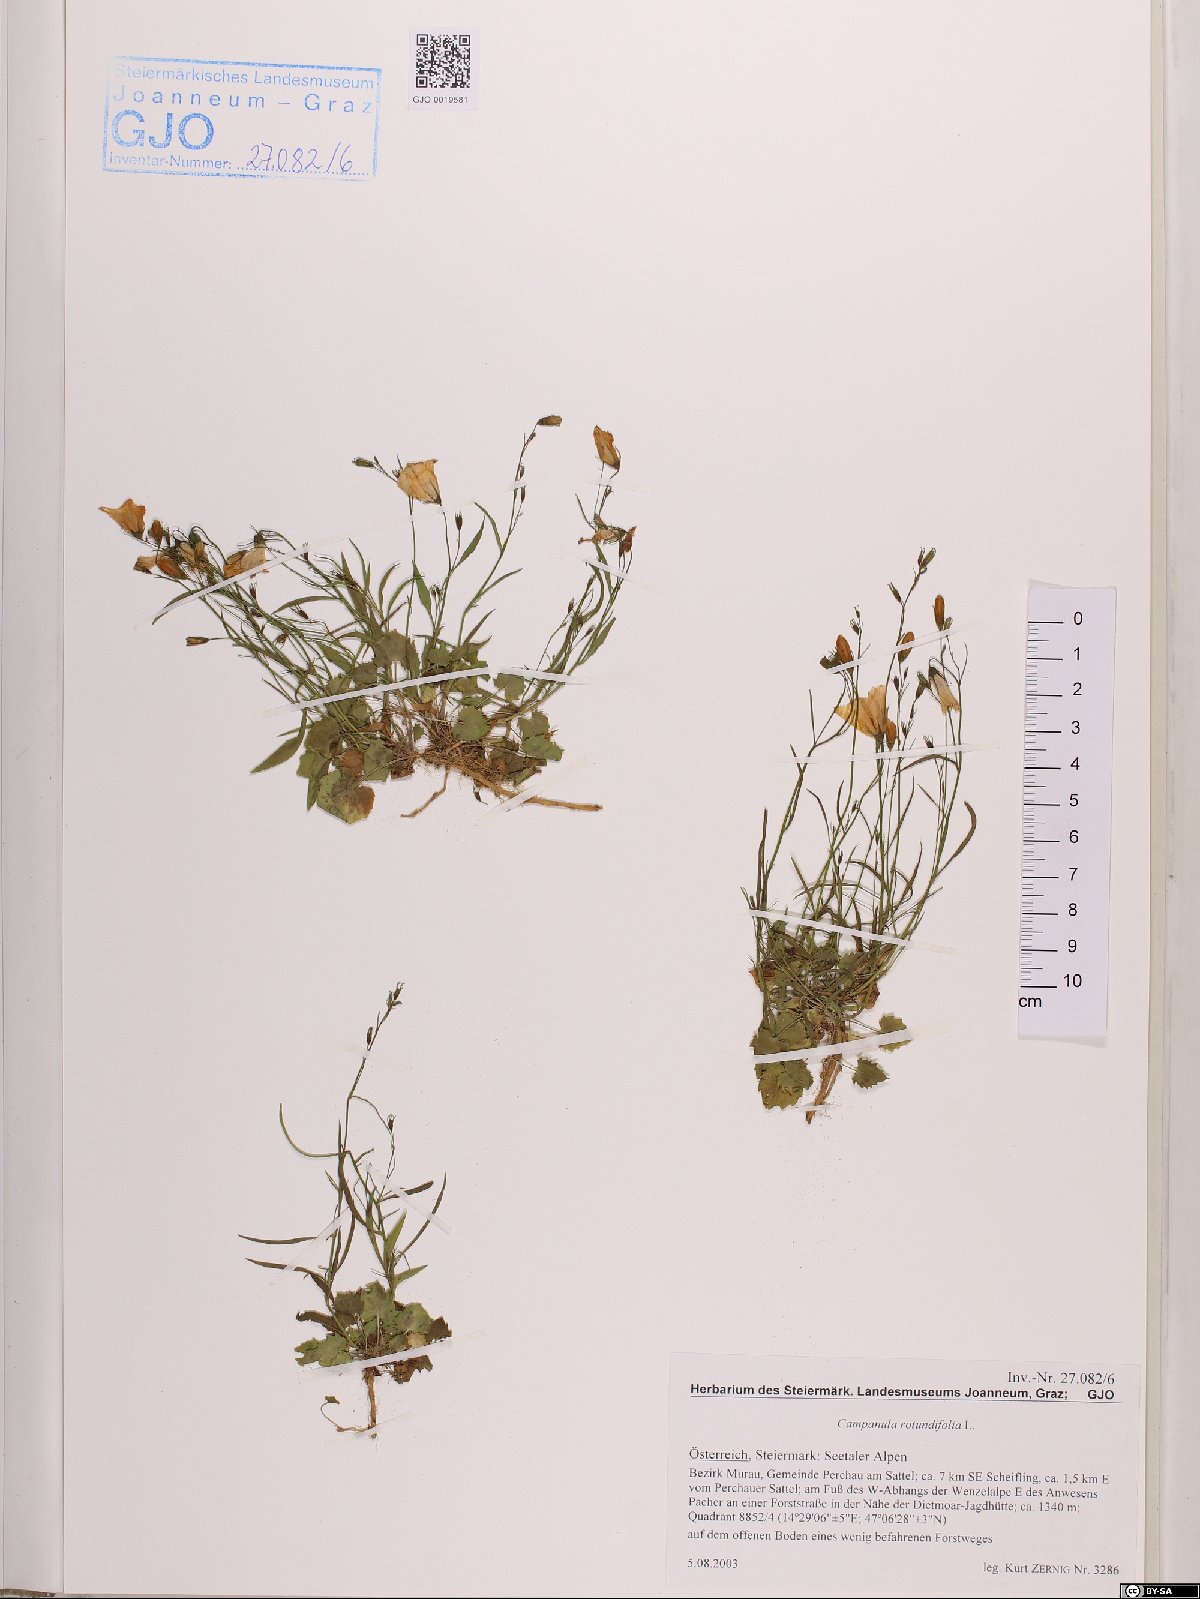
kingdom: Plantae
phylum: Tracheophyta
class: Magnoliopsida
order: Asterales
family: Campanulaceae
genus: Campanula
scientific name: Campanula rotundifolia
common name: Harebell
